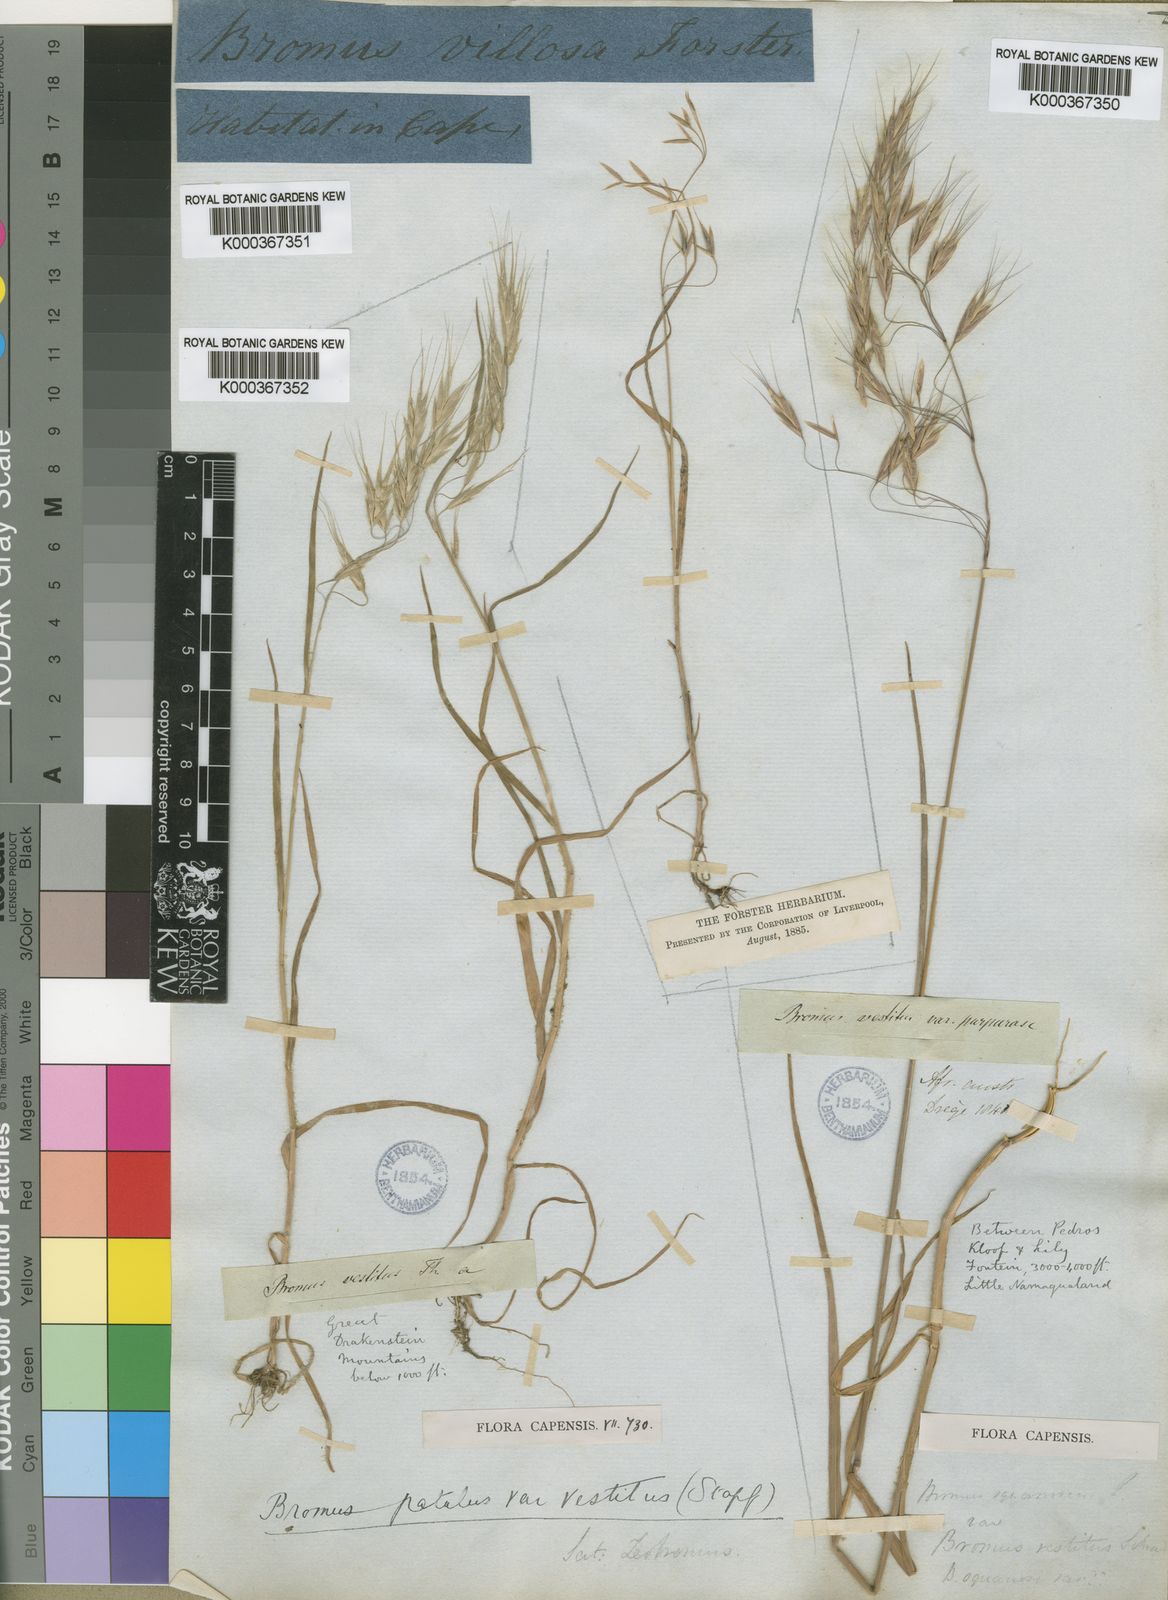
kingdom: Plantae
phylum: Tracheophyta
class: Liliopsida
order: Poales
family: Poaceae
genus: Bromus
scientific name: Bromus pectinatus
